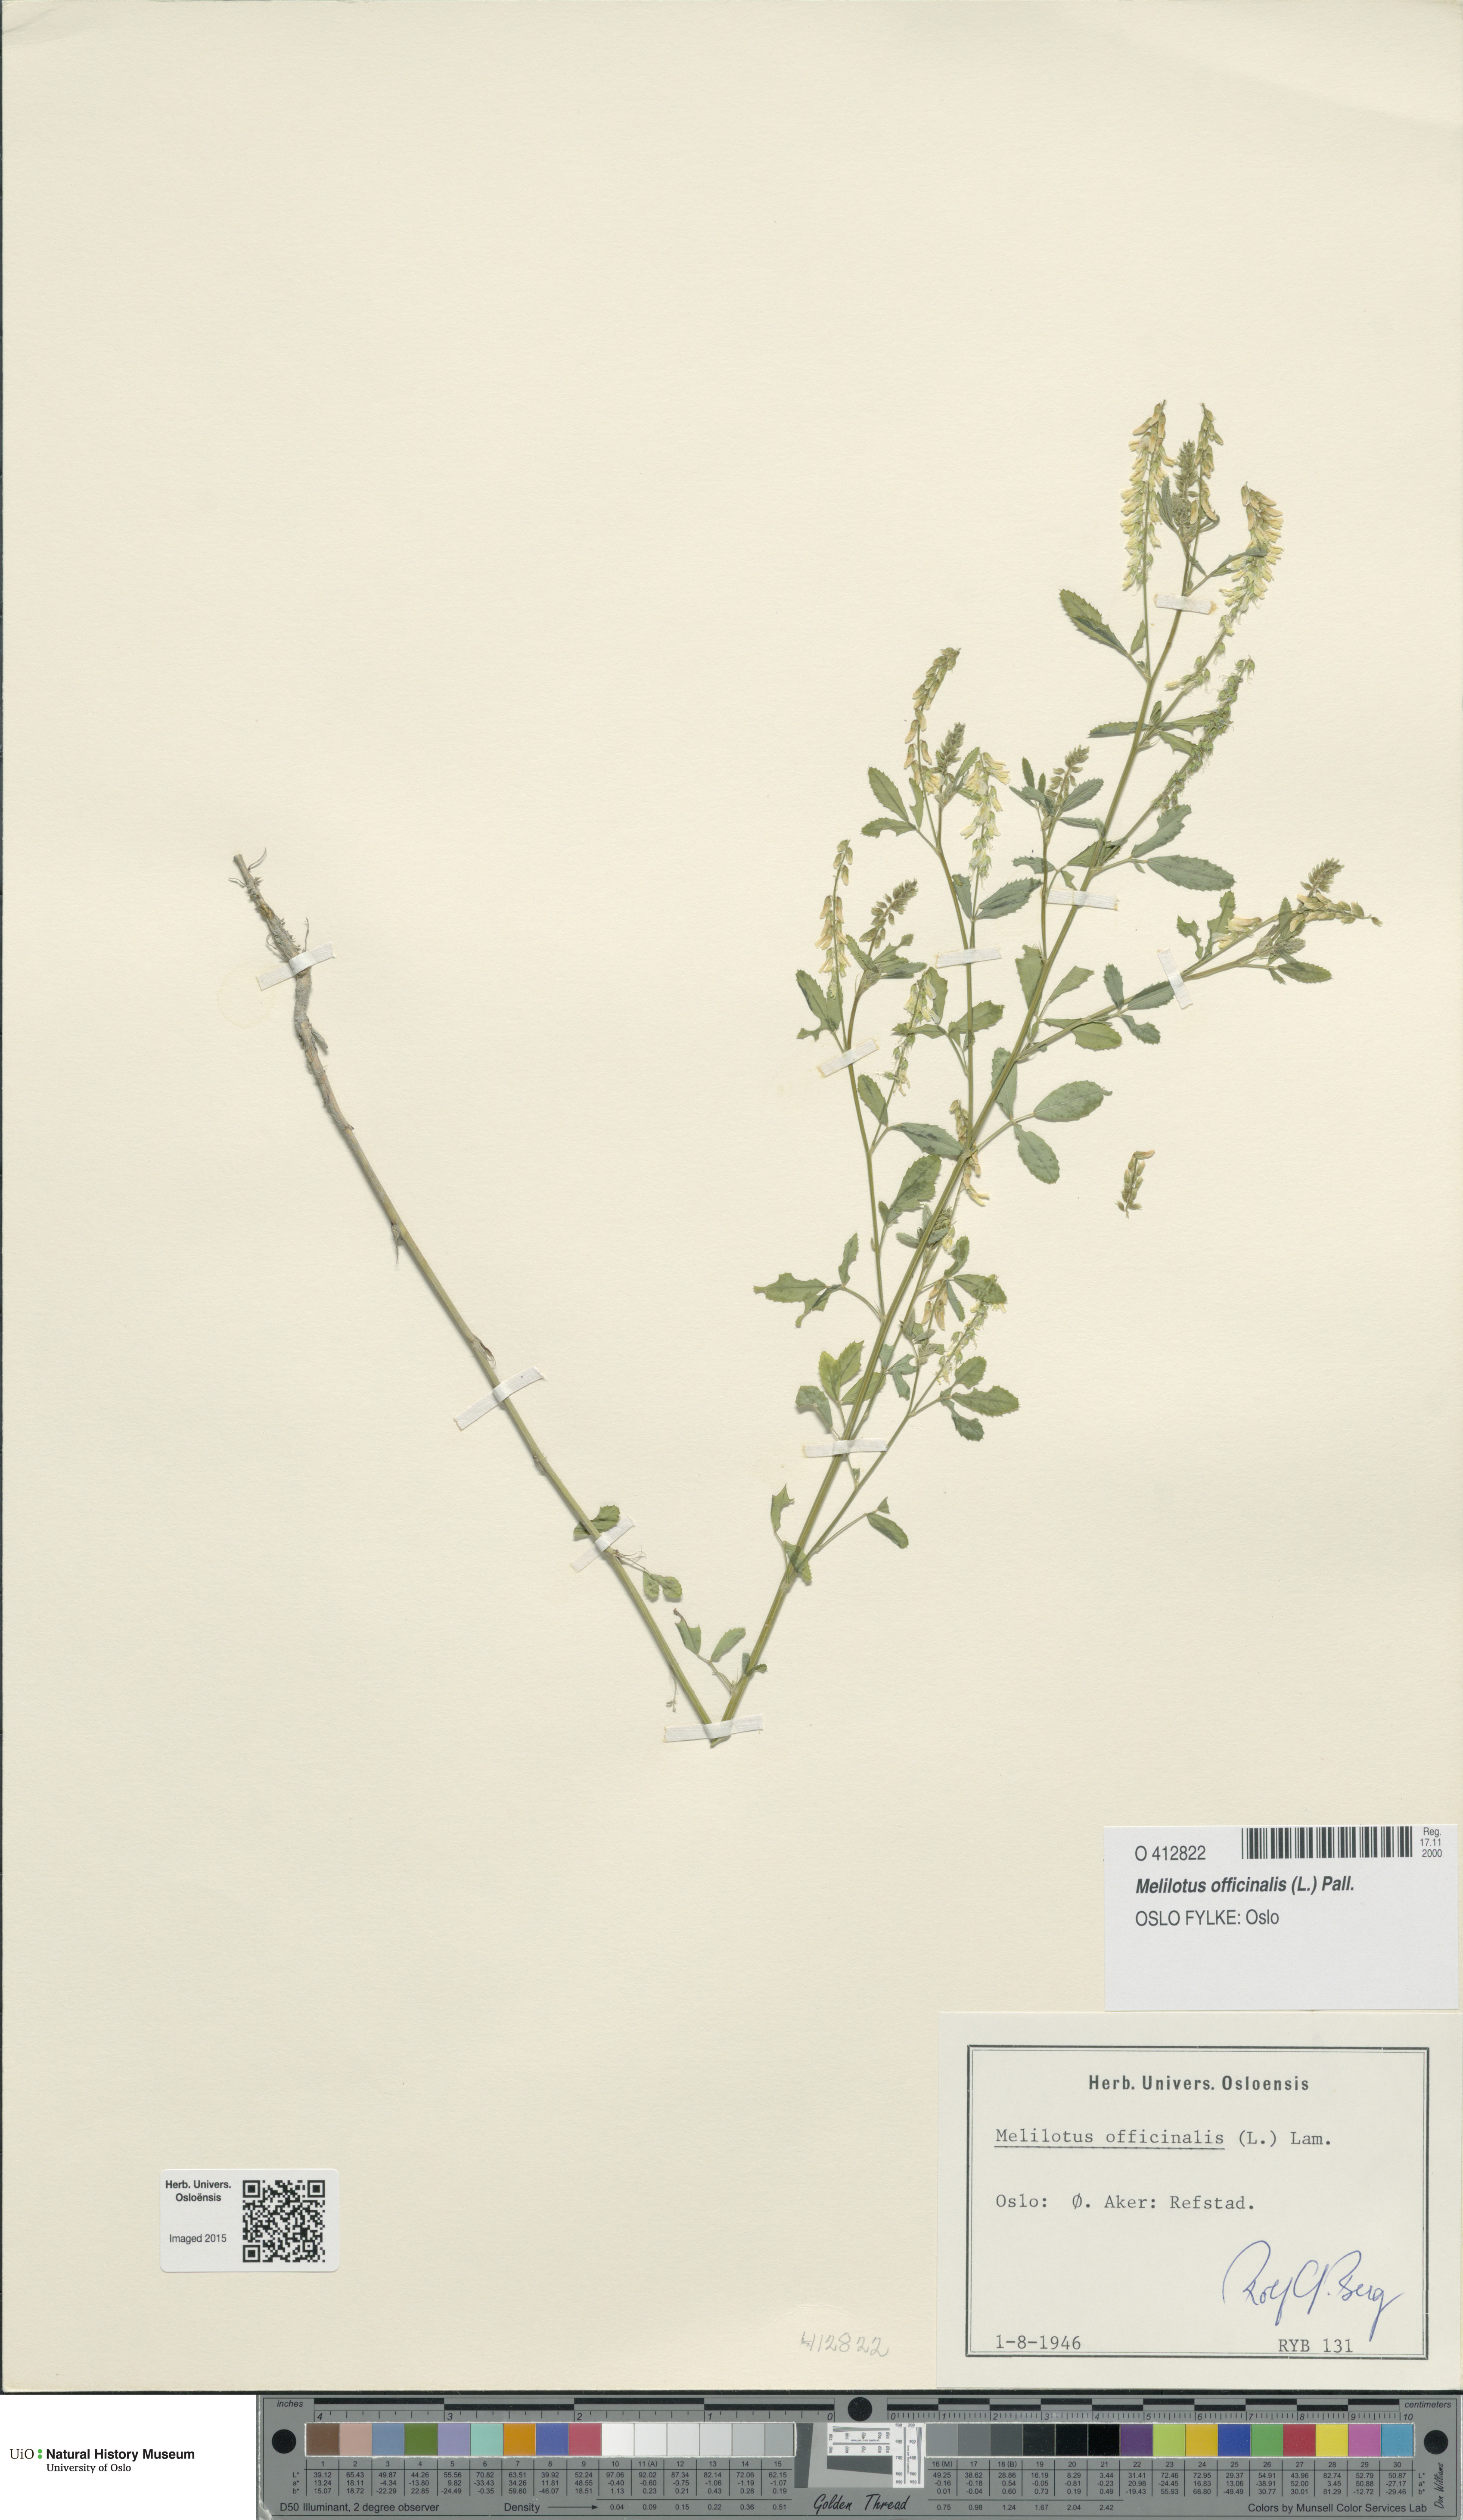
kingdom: Plantae
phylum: Tracheophyta
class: Magnoliopsida
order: Fabales
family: Fabaceae
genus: Melilotus
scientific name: Melilotus officinalis
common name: Sweetclover
